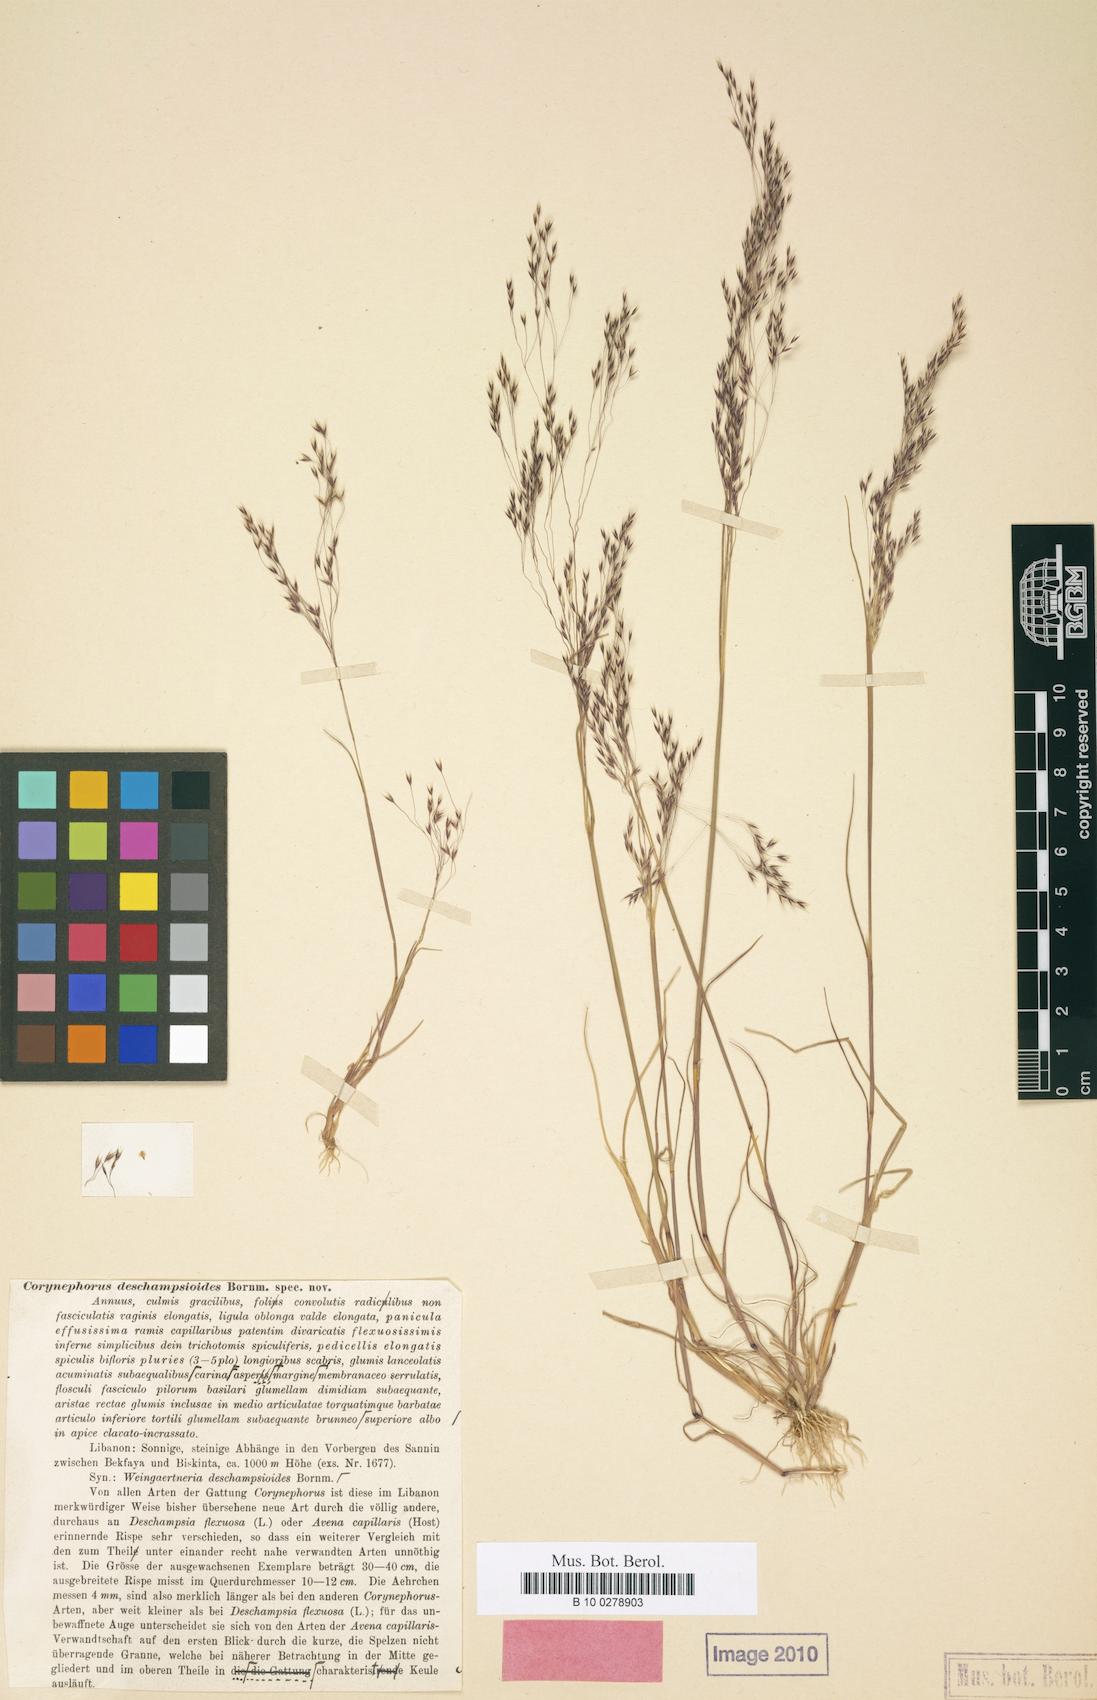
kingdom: Plantae
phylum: Tracheophyta
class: Liliopsida
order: Poales
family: Poaceae
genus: Corynephorus
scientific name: Corynephorus deschampsioides
